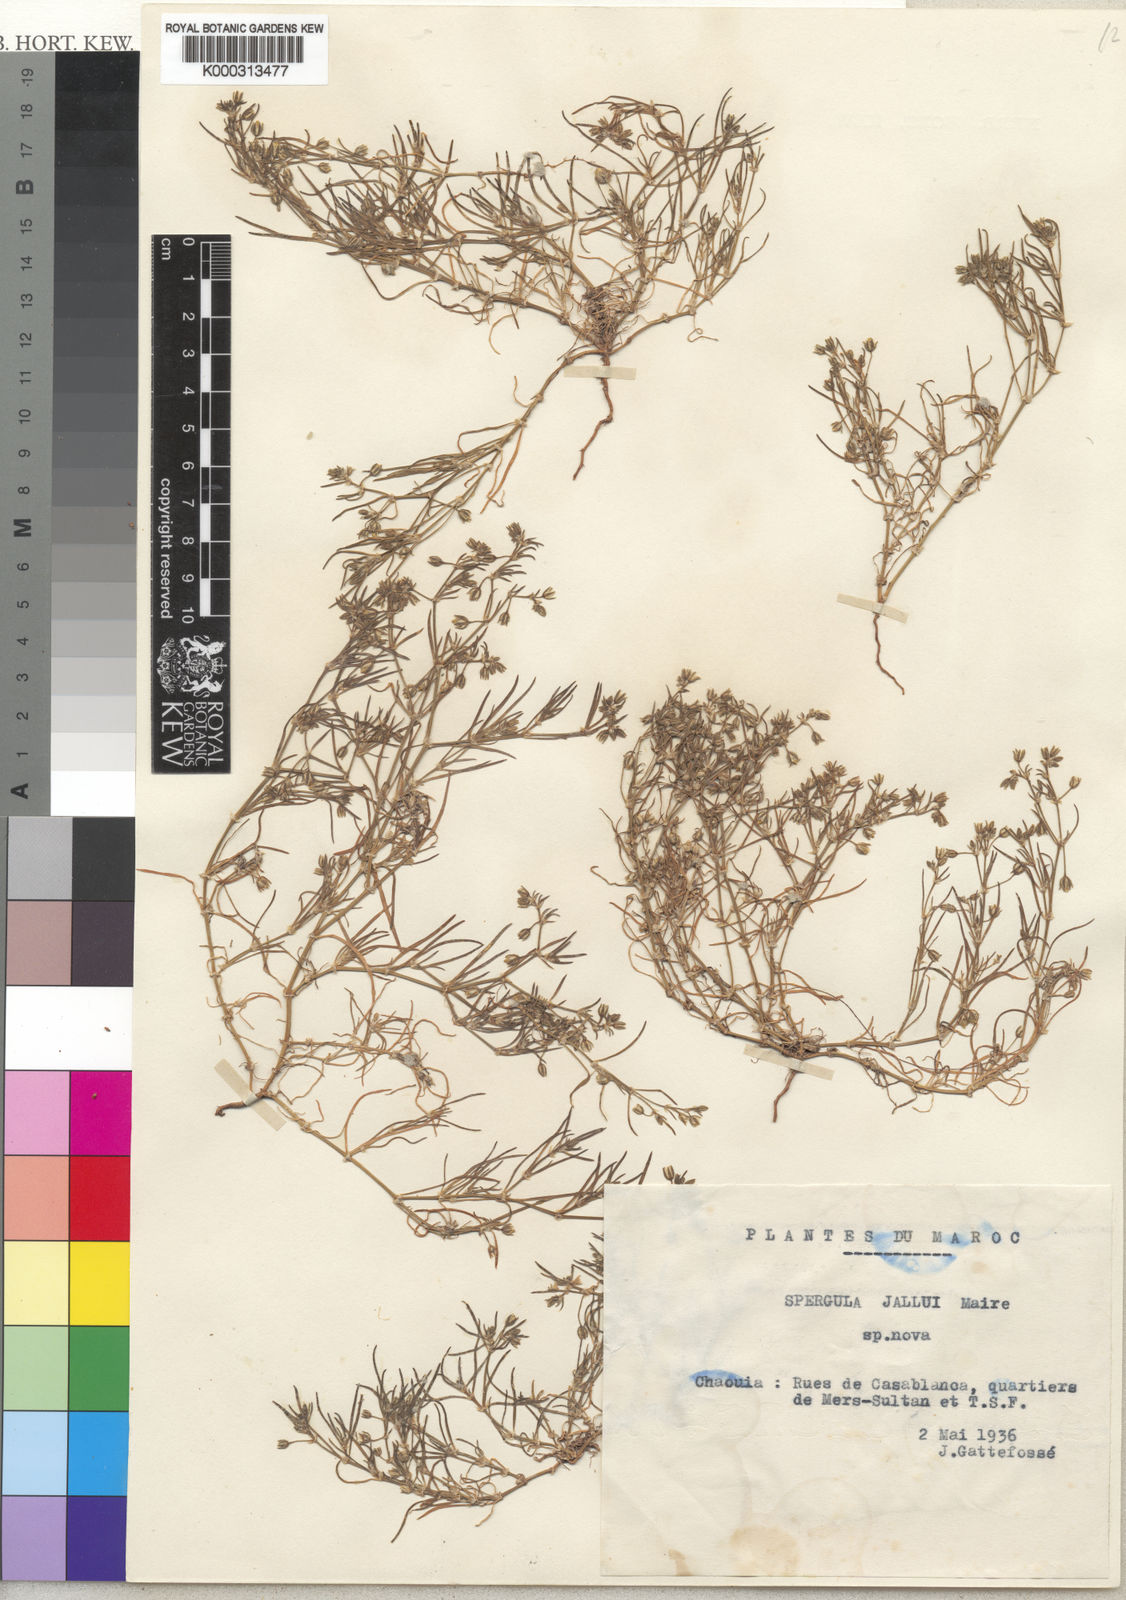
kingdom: Plantae
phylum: Tracheophyta
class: Magnoliopsida
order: Caryophyllales
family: Caryophyllaceae
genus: Spergularia
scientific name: Spergularia bocconei
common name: Greek sea-spurrey
